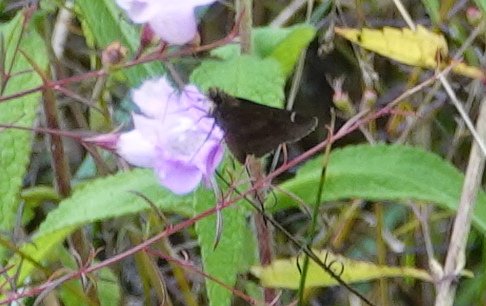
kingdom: Animalia
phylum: Arthropoda
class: Insecta
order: Lepidoptera
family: Hesperiidae
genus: Lerema
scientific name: Lerema accius
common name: Clouded Skipper
